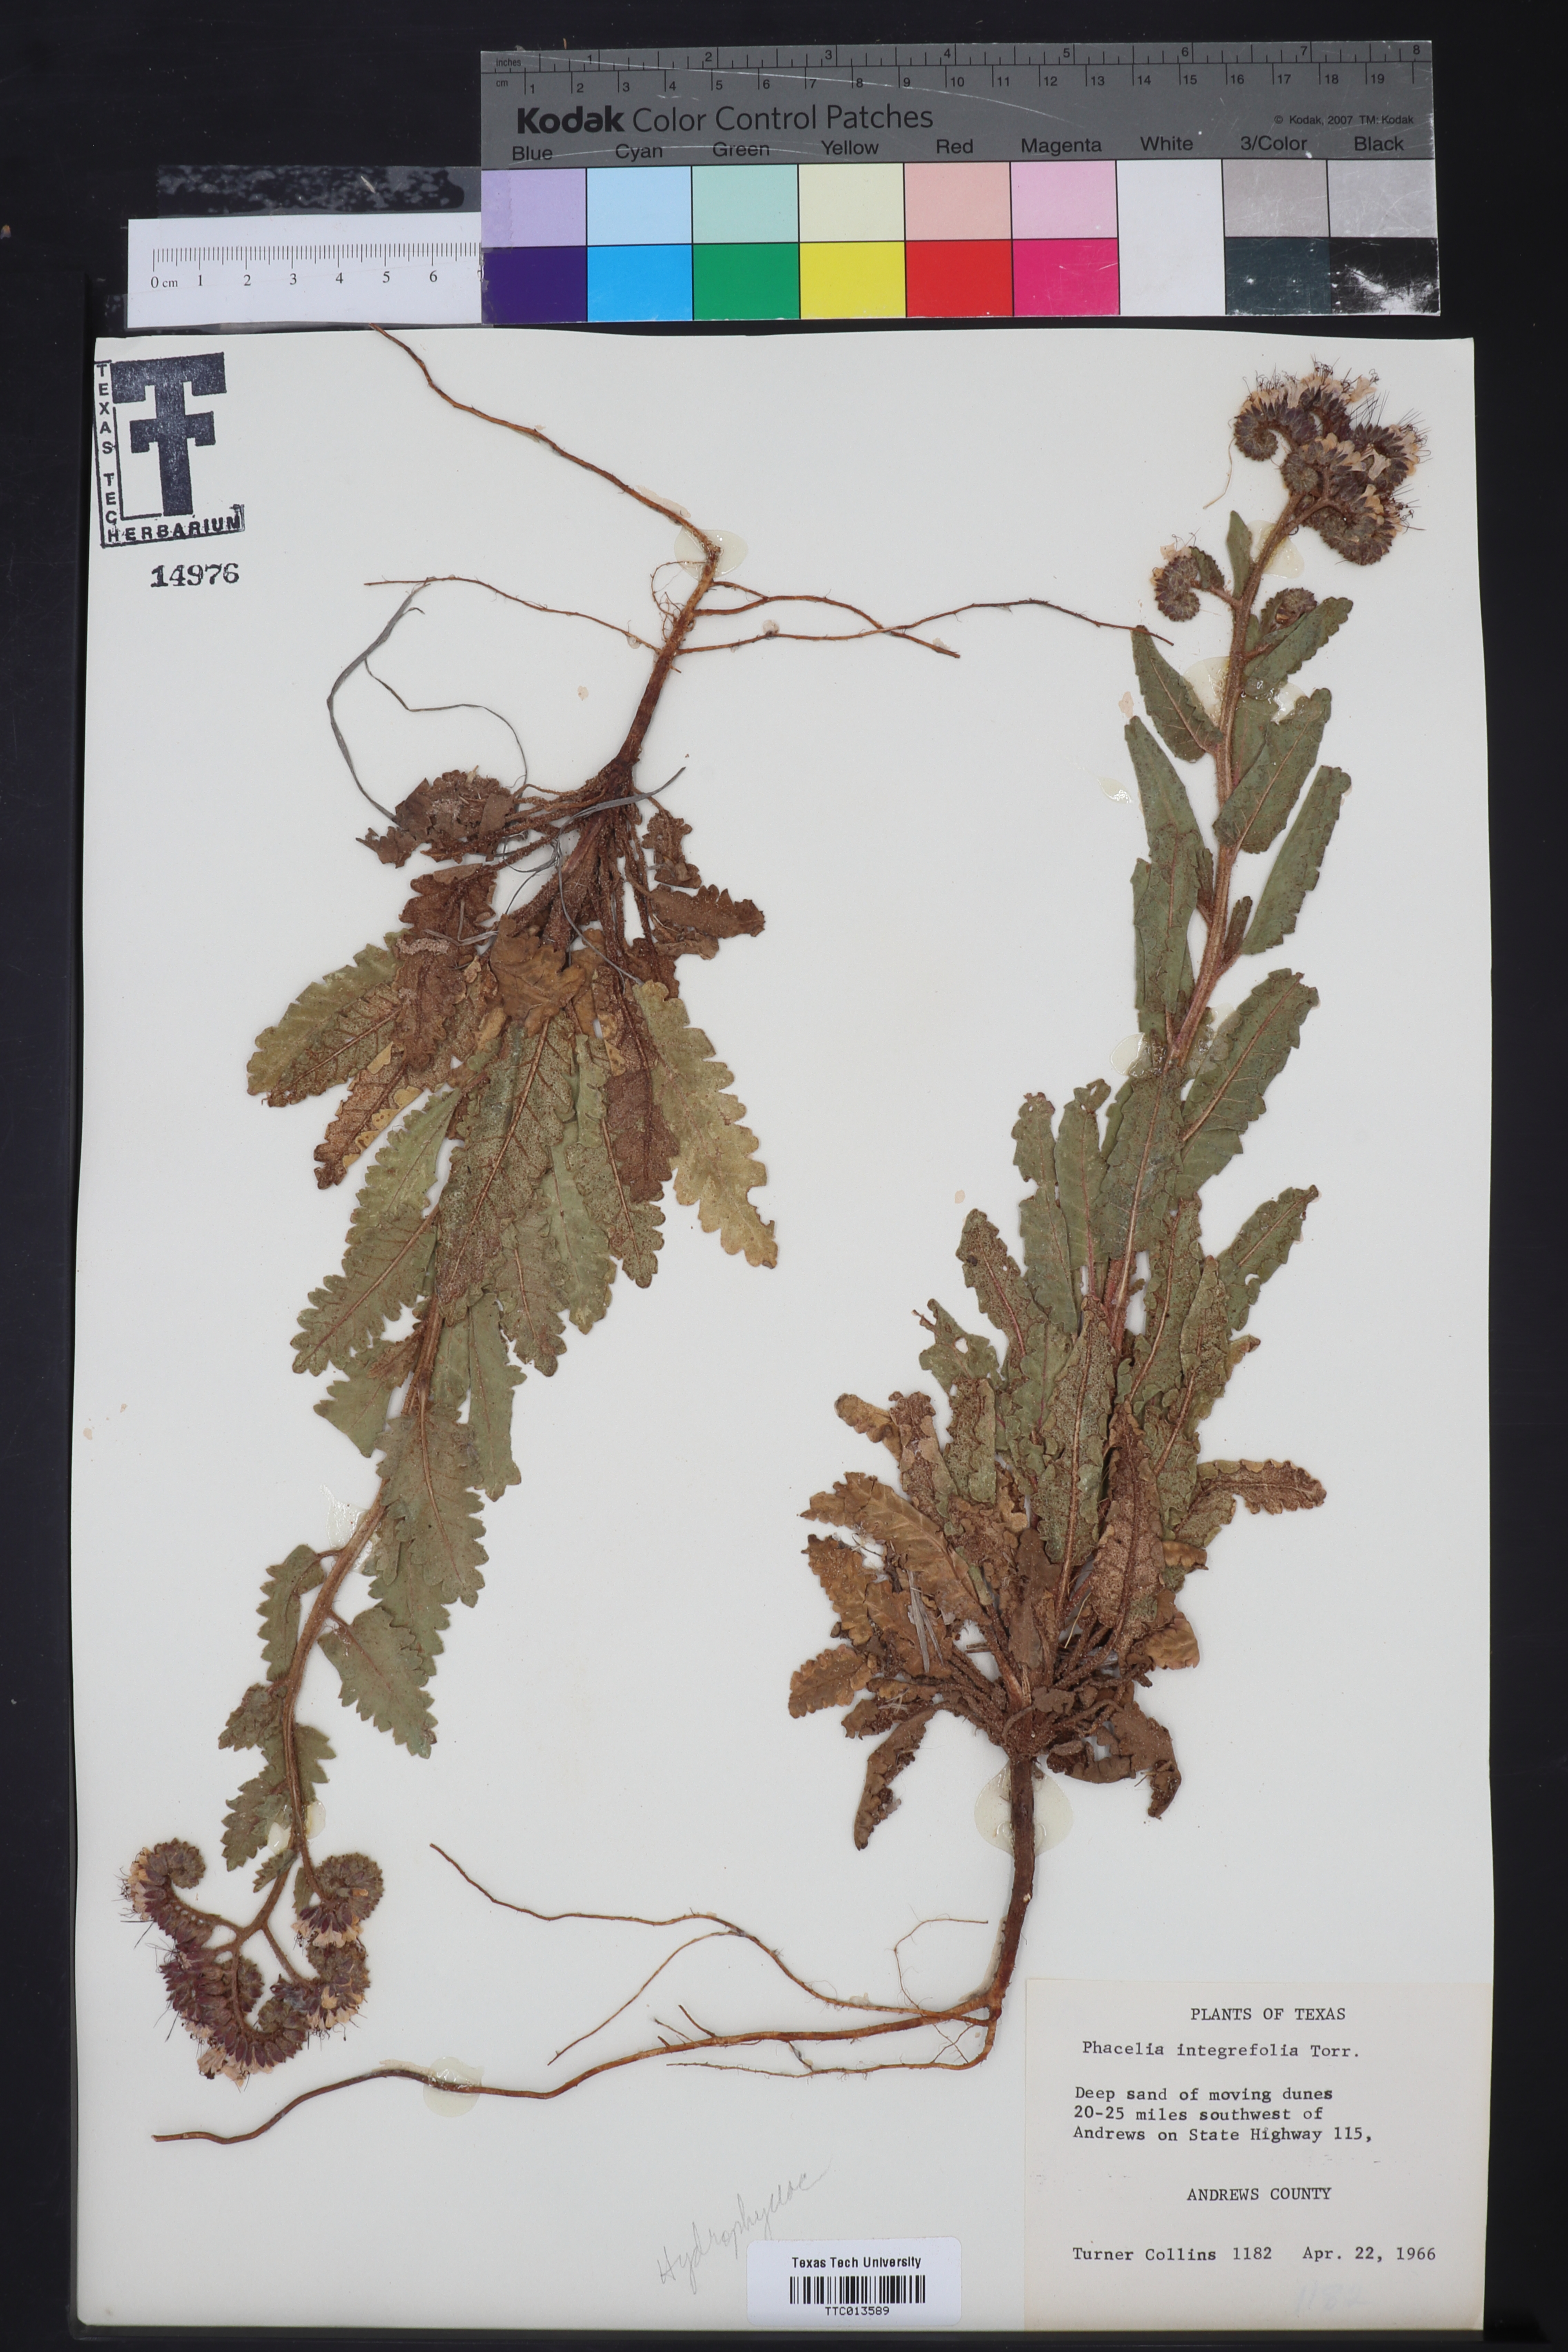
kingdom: Plantae
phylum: Tracheophyta
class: Magnoliopsida
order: Boraginales
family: Hydrophyllaceae
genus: Phacelia
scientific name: Phacelia integrifolia
